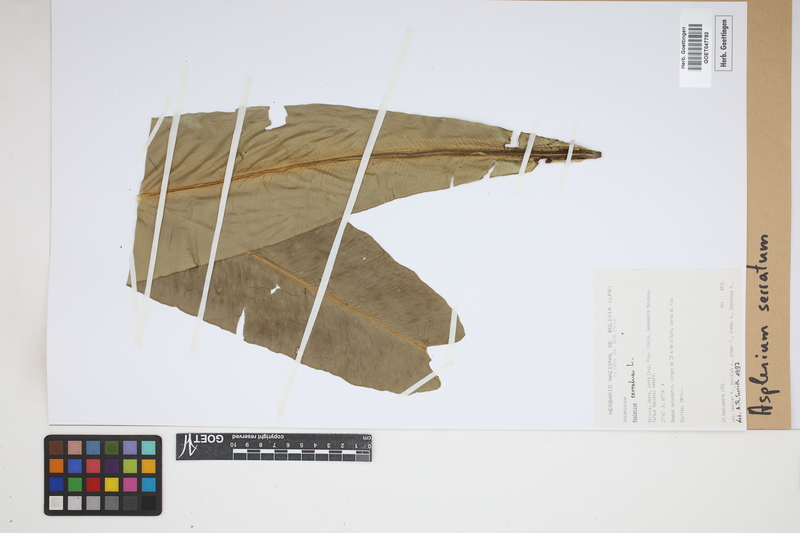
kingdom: Plantae
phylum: Tracheophyta
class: Polypodiopsida
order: Polypodiales
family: Aspleniaceae
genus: Asplenium
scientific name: Asplenium serratum
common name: Wild birdnest fern
